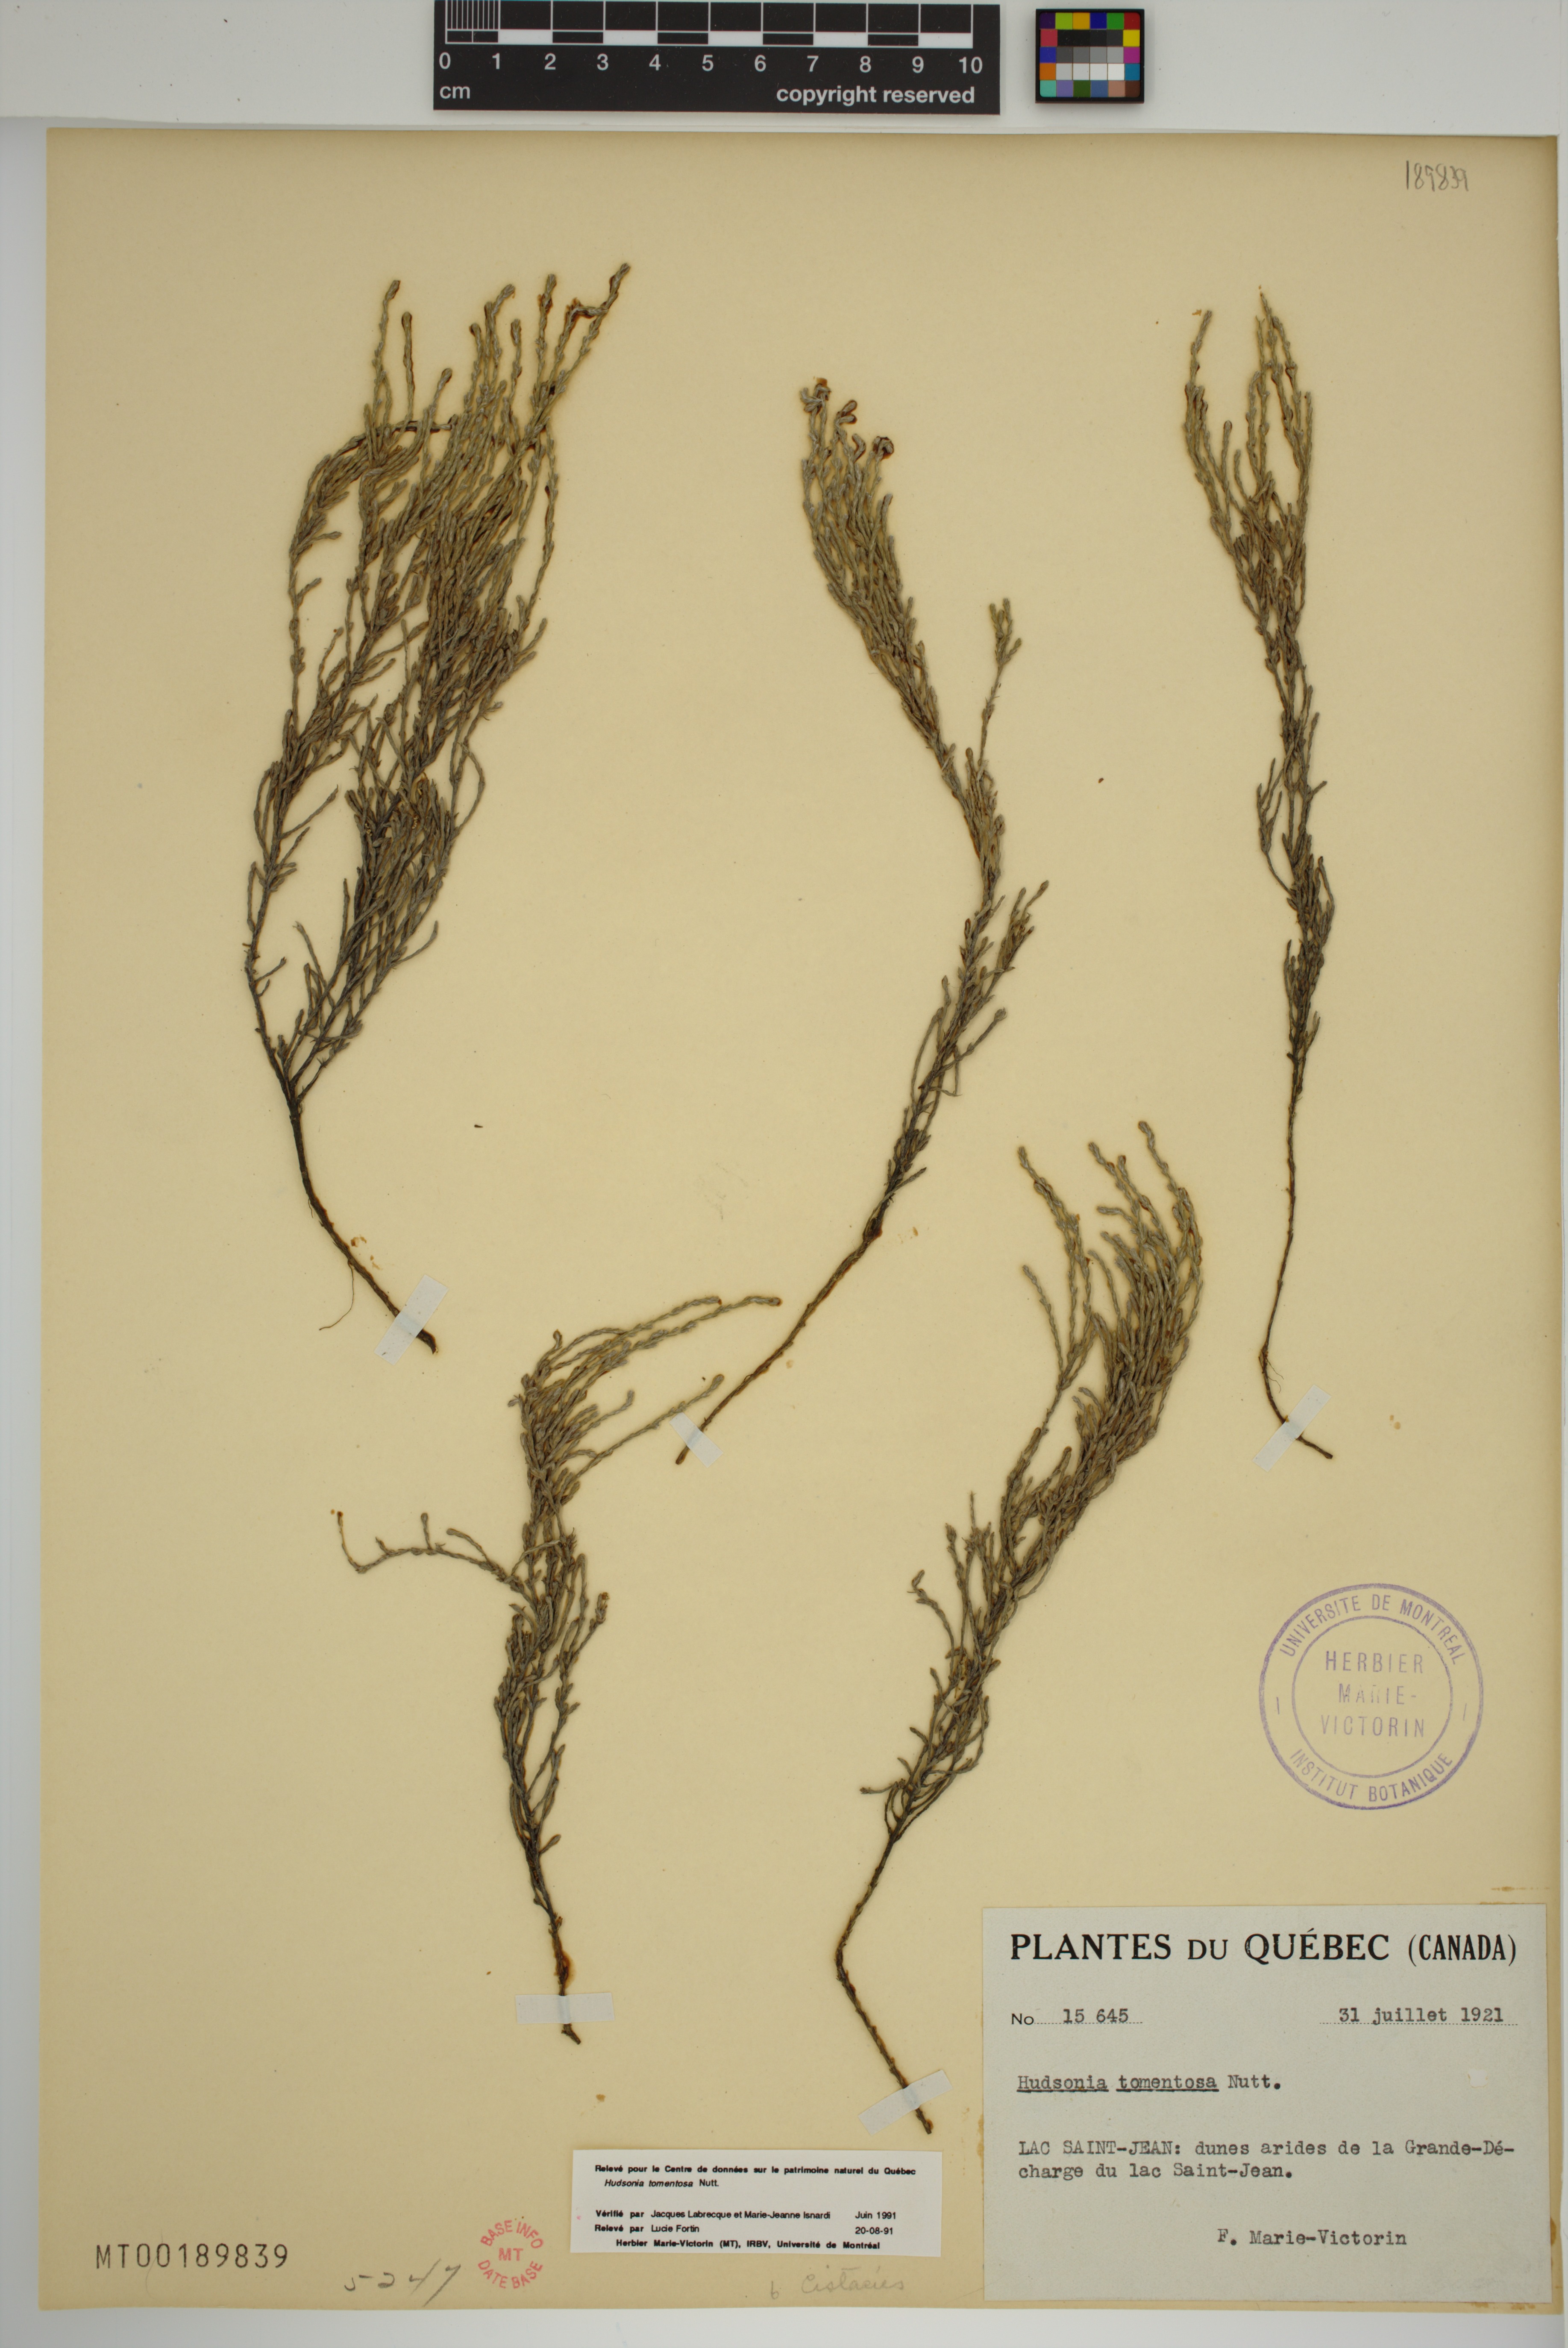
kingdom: Plantae
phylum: Tracheophyta
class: Magnoliopsida
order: Malvales
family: Cistaceae
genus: Hudsonia
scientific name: Hudsonia tomentosa
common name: Beach-heath
